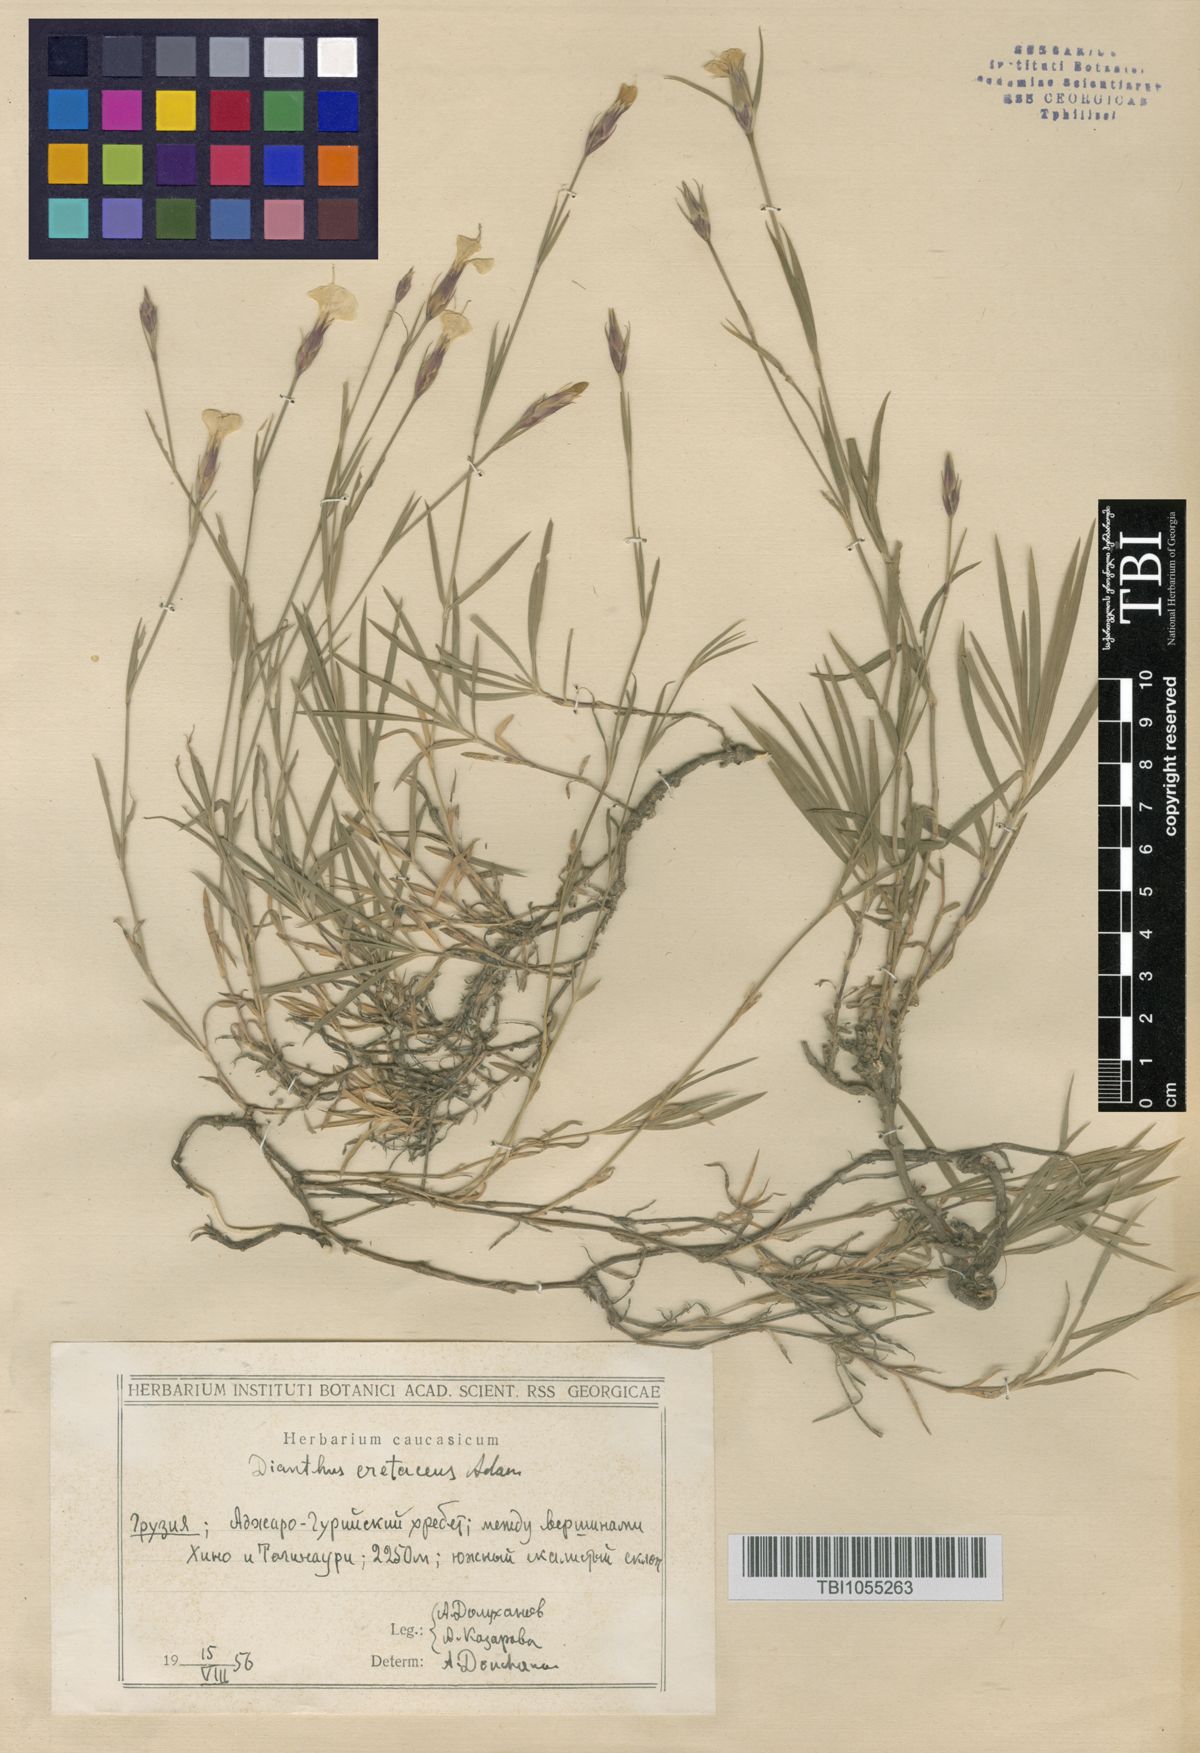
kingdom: Plantae
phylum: Tracheophyta
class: Magnoliopsida
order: Caryophyllales
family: Caryophyllaceae
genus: Dianthus
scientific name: Dianthus cretaceus
